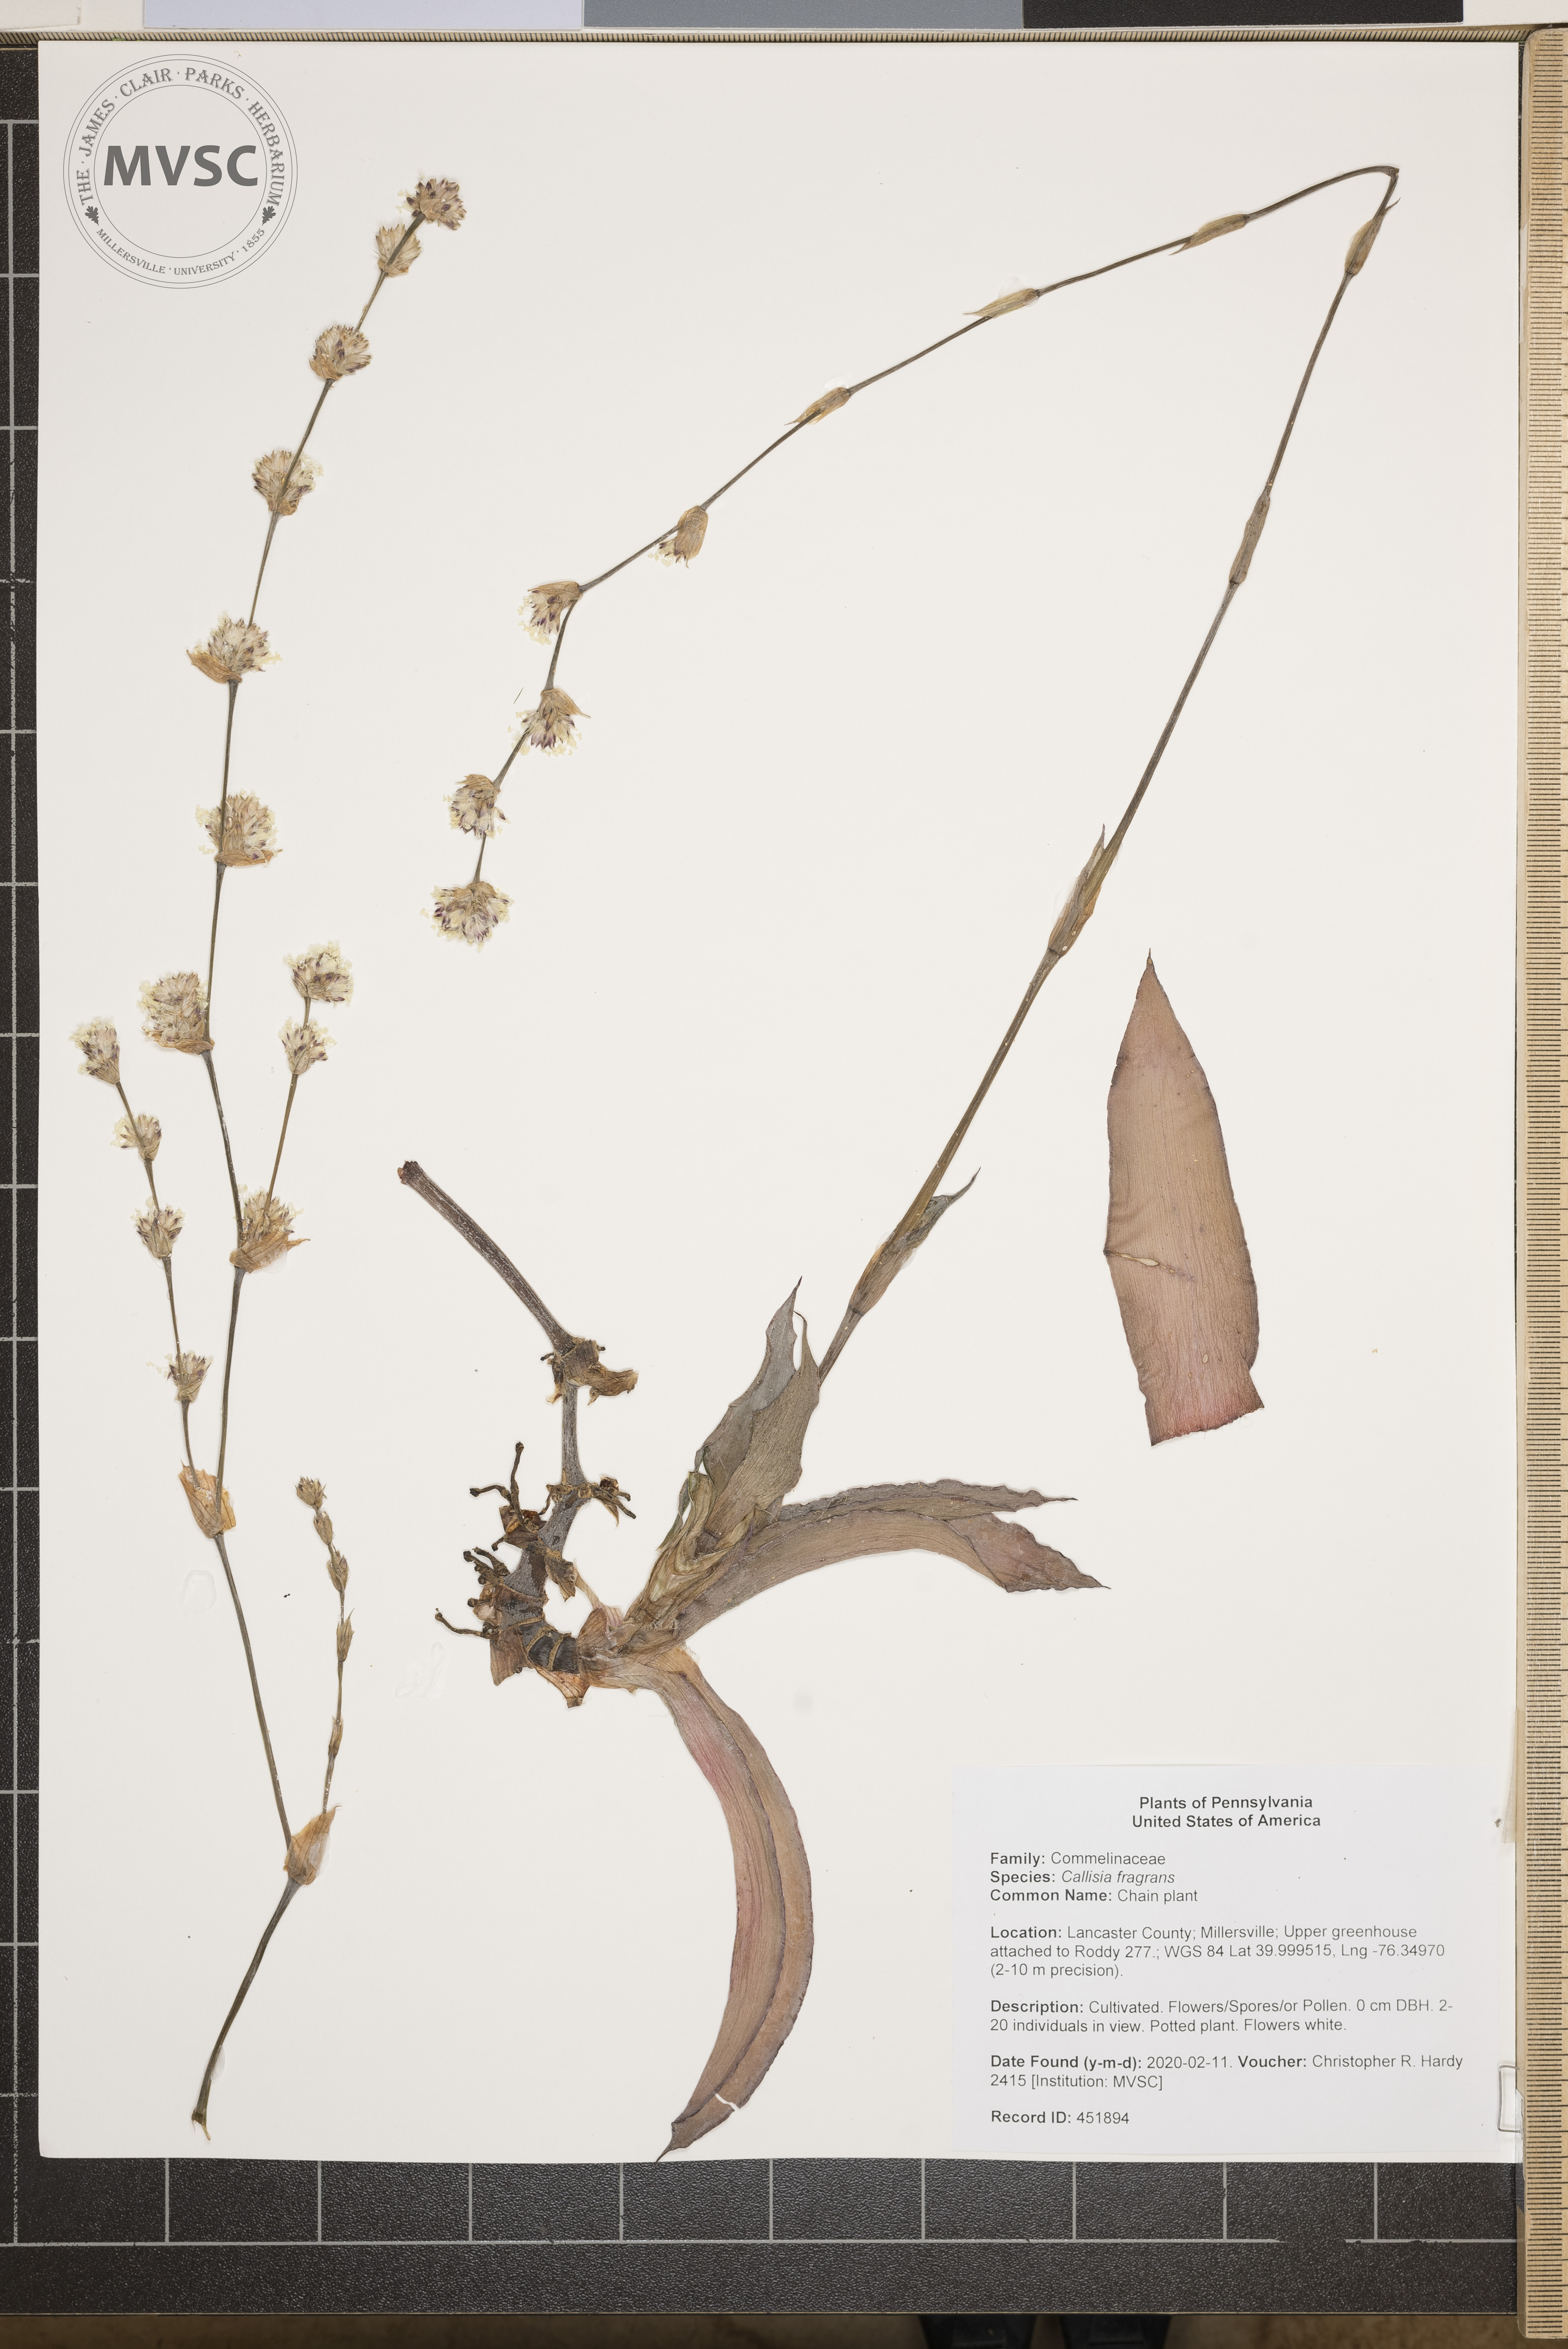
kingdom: Plantae
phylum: Tracheophyta
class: Liliopsida
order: Commelinales
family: Commelinaceae
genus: Callisia
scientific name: Callisia fragrans
